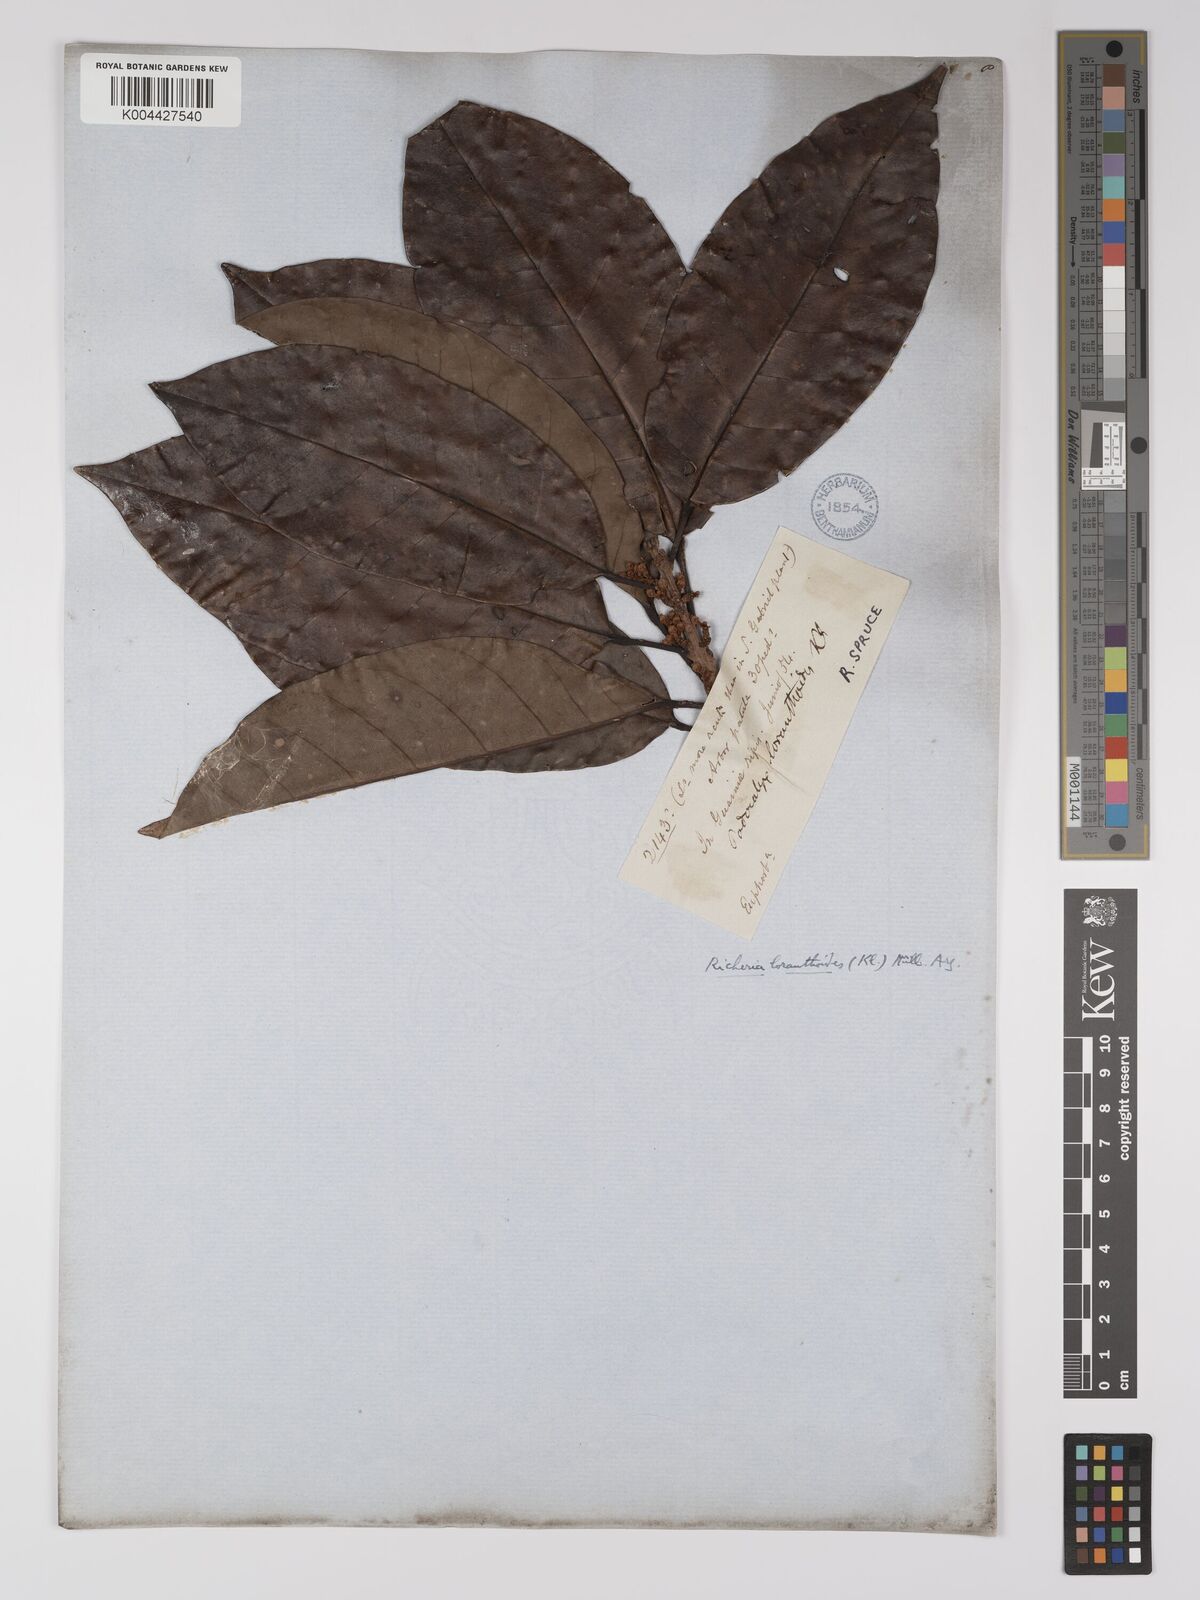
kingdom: Plantae
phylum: Tracheophyta
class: Magnoliopsida
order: Malpighiales
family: Picrodendraceae
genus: Podocalyx
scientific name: Podocalyx loranthoides
